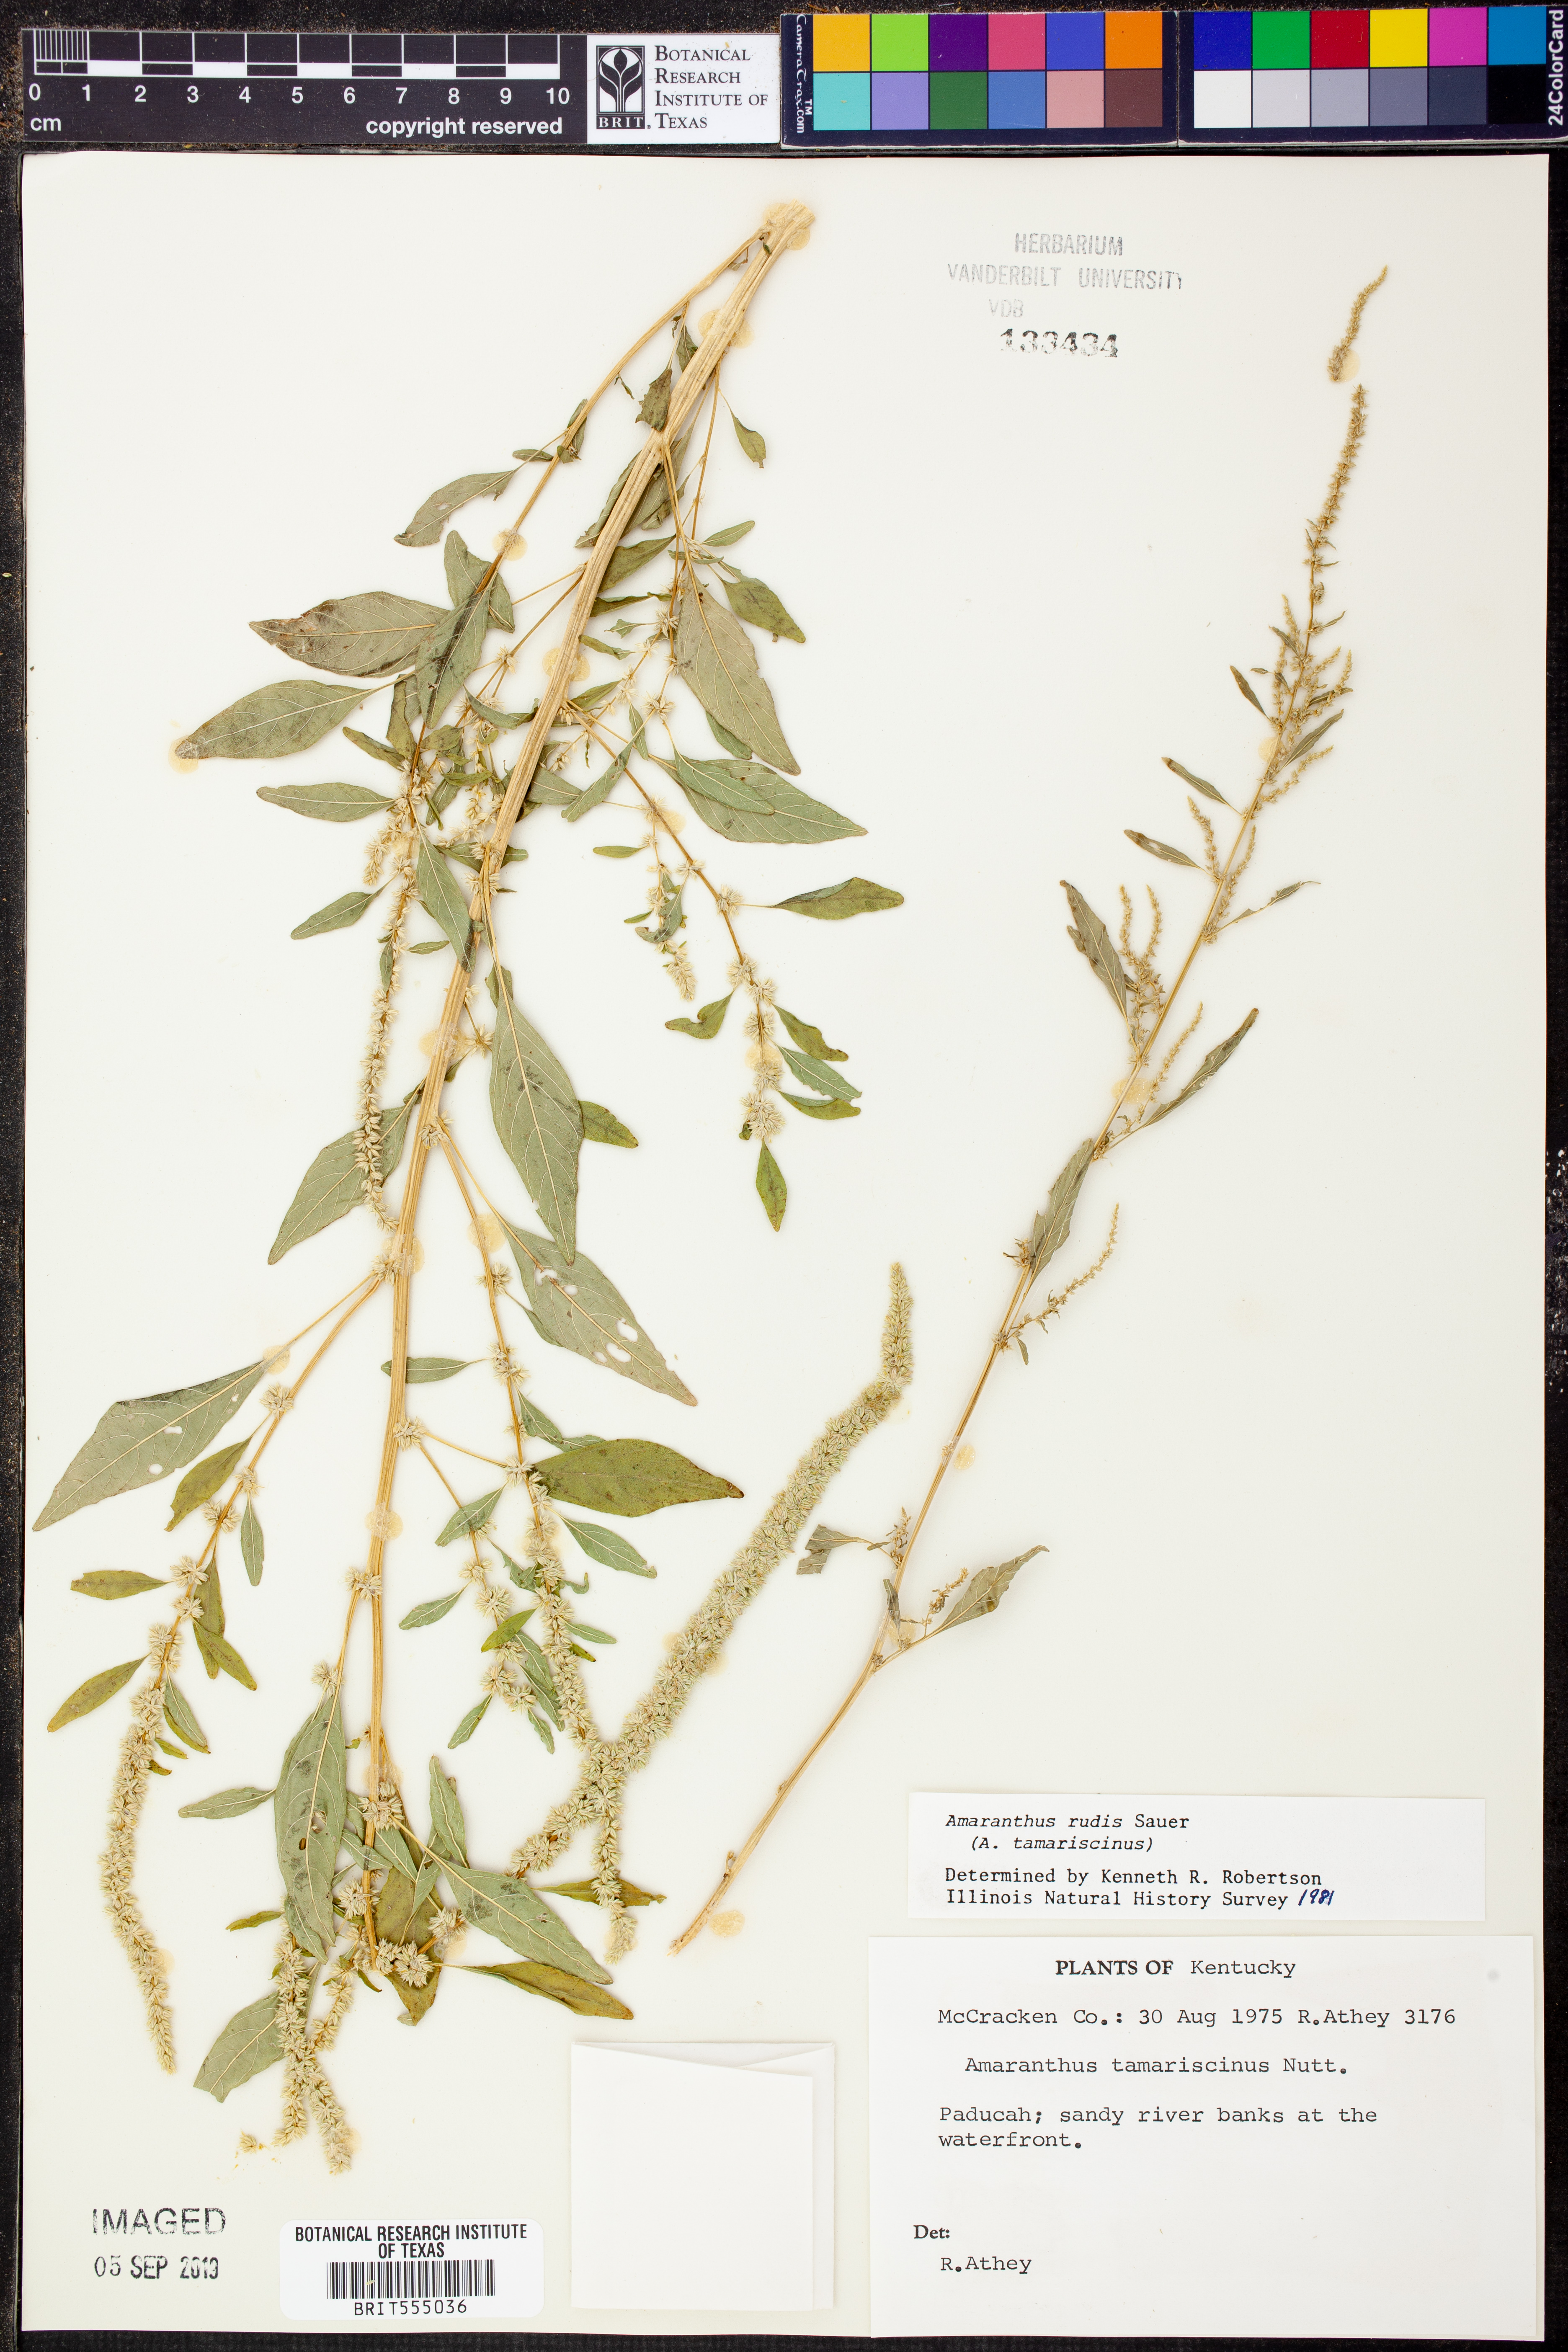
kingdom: Plantae
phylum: Tracheophyta
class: Magnoliopsida
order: Caryophyllales
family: Amaranthaceae
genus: Amaranthus
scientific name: Amaranthus tuberculatus
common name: Rough-fruit amaranth
